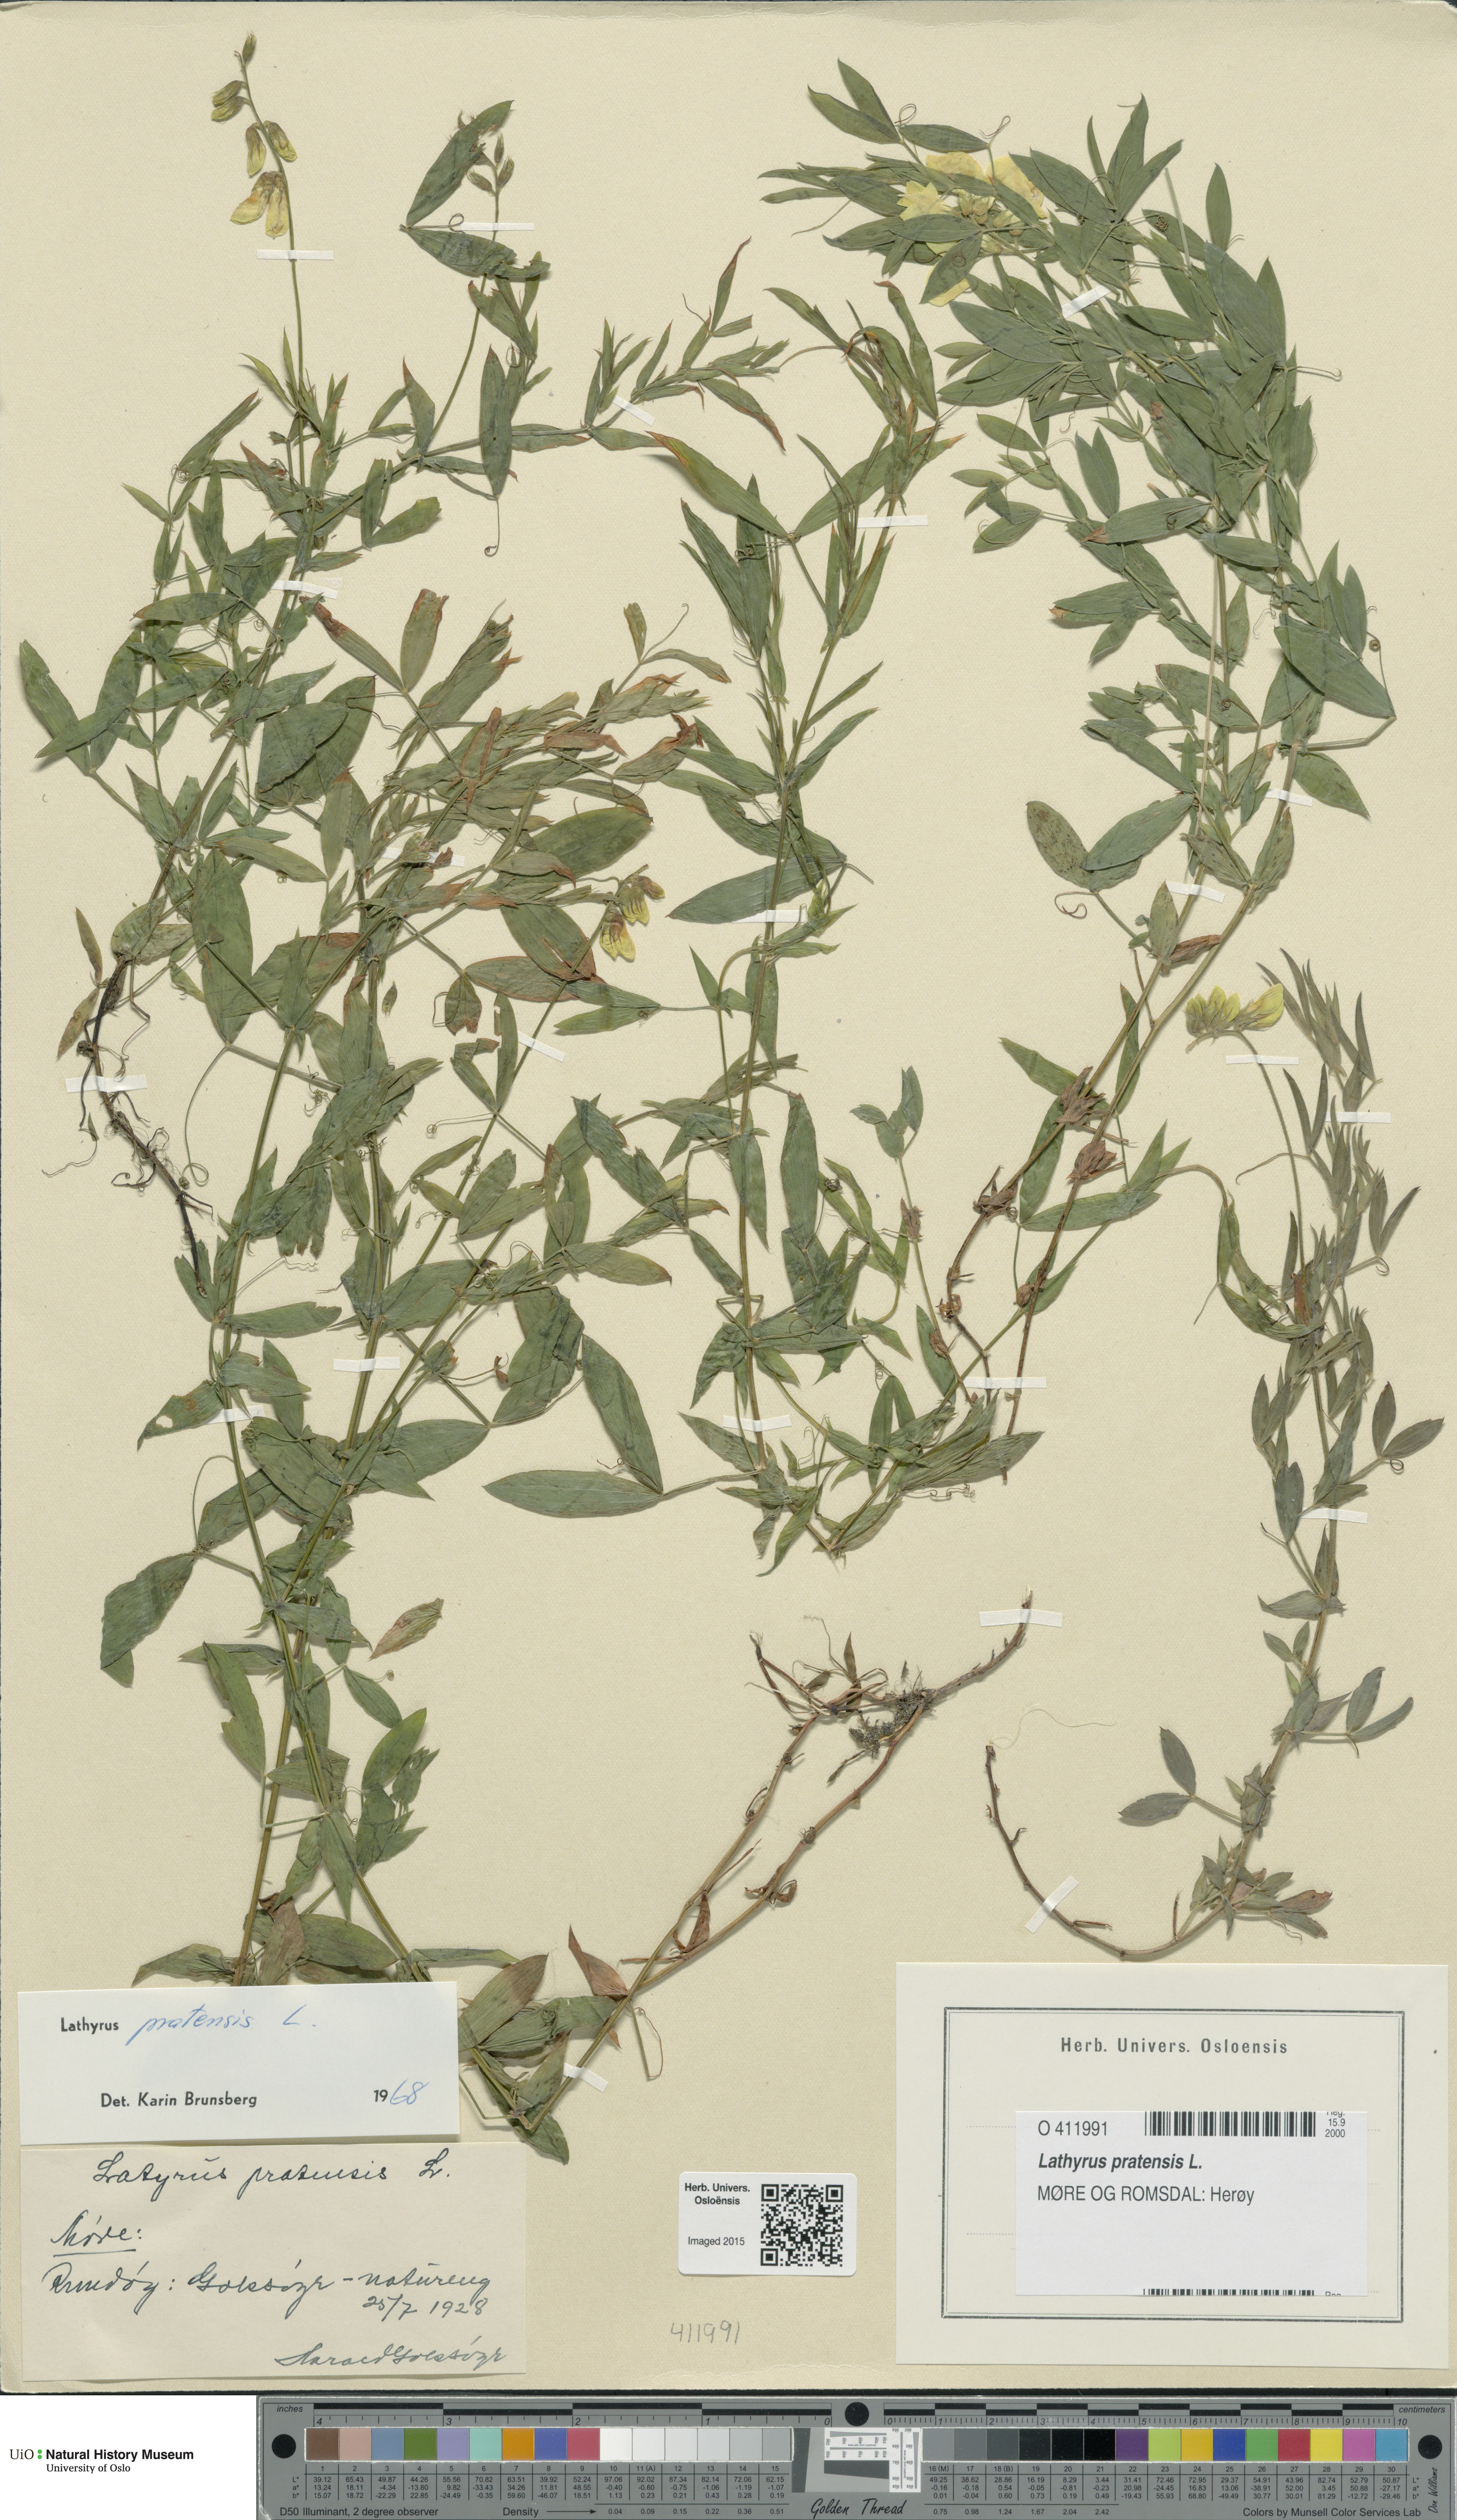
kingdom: Plantae
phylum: Tracheophyta
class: Magnoliopsida
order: Fabales
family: Fabaceae
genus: Lathyrus
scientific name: Lathyrus pratensis
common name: Meadow vetchling
